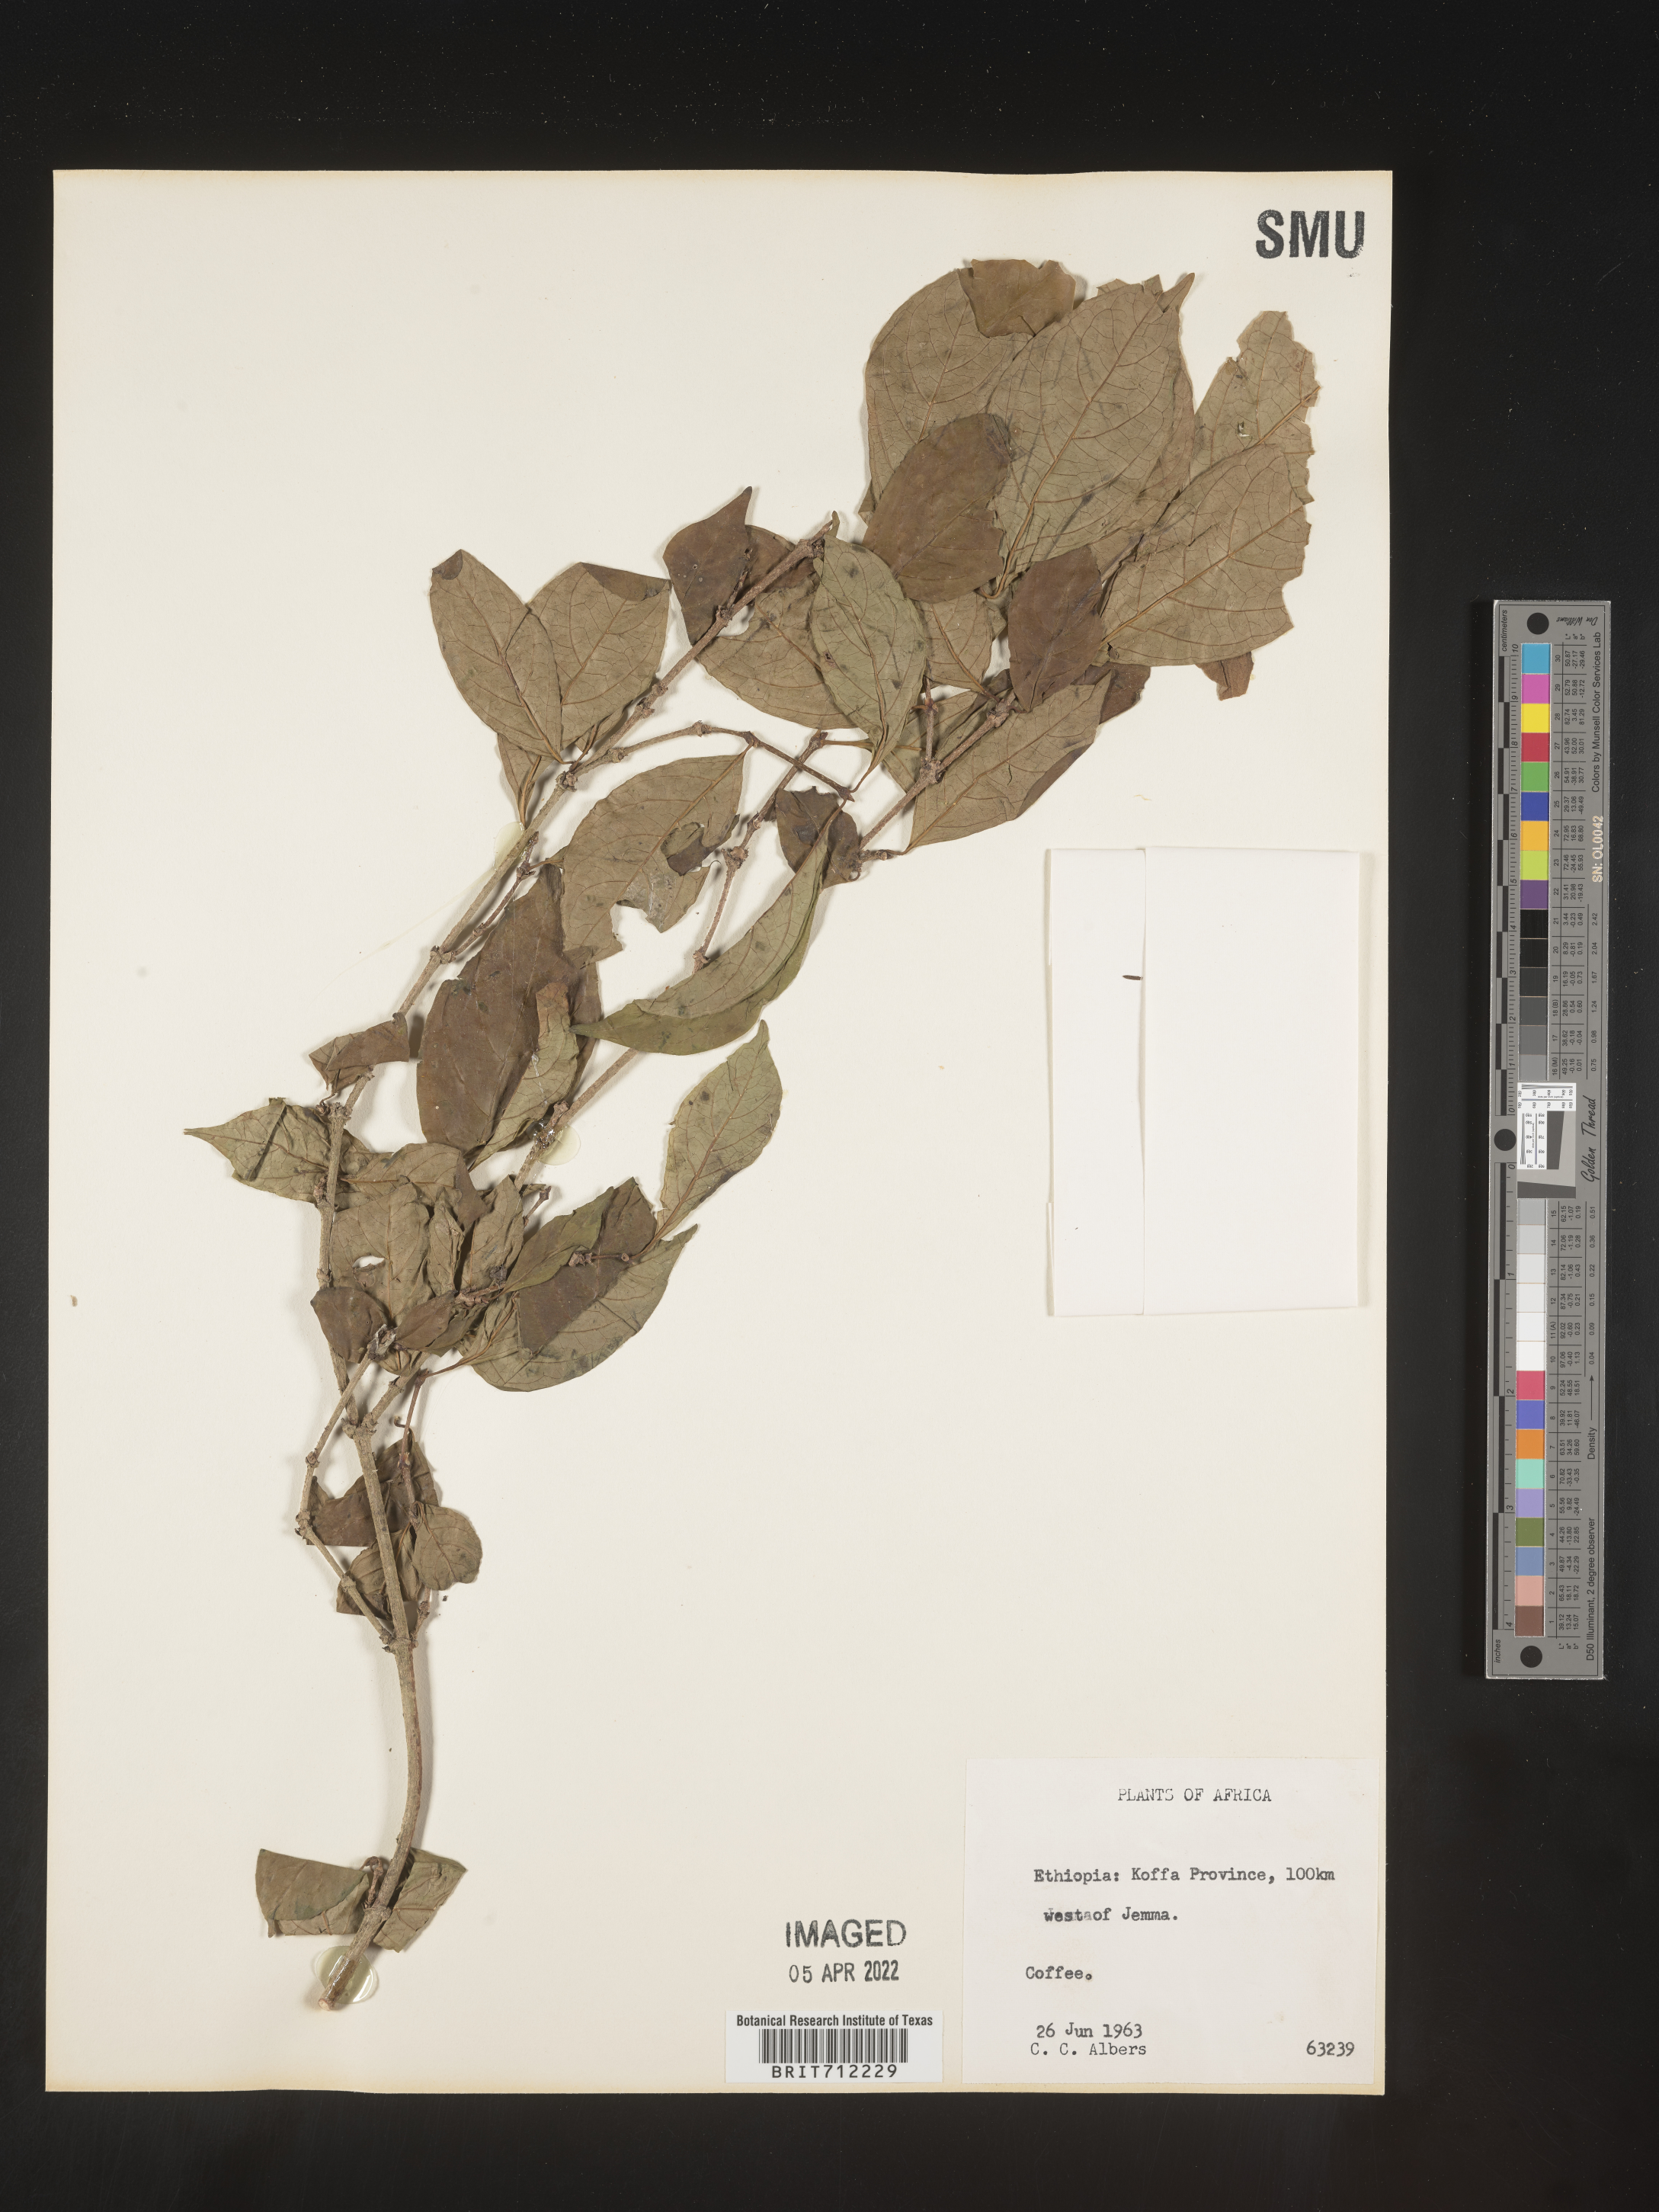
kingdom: Plantae
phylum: Tracheophyta
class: Magnoliopsida
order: Gentianales
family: Rubiaceae
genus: Coffea
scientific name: Coffea
